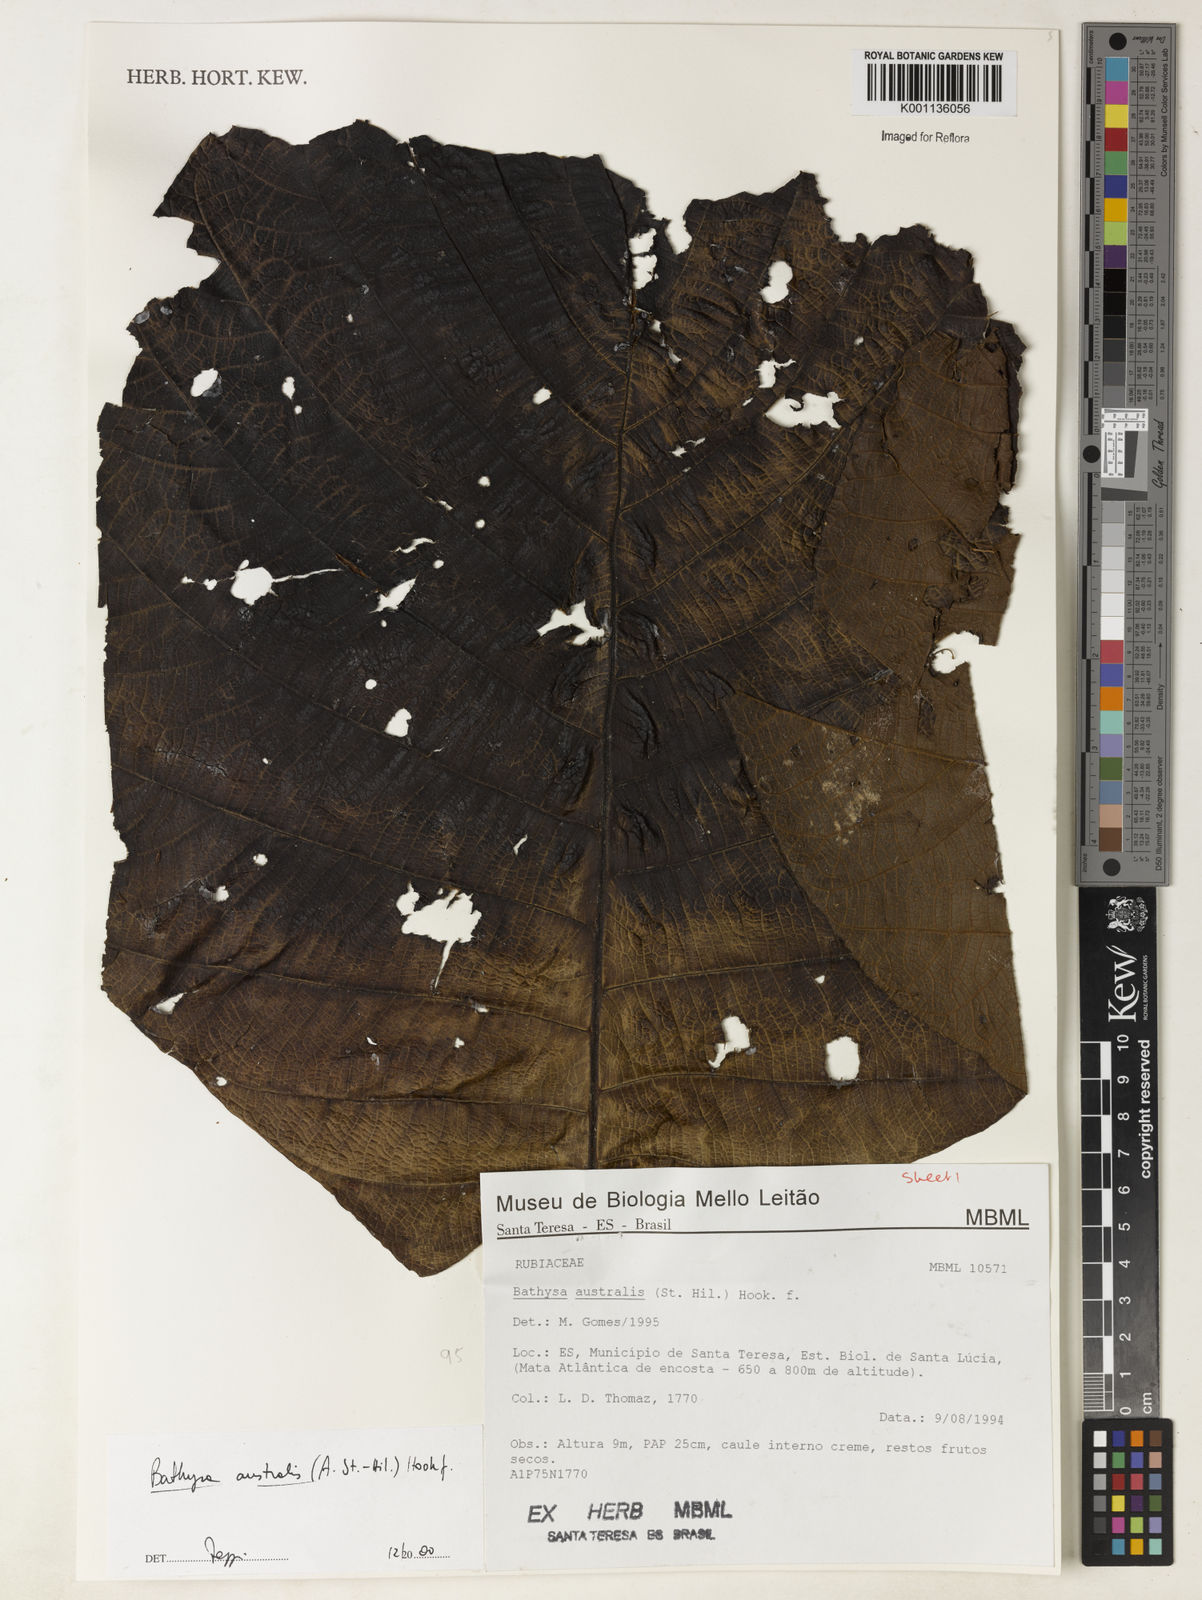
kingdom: Plantae
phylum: Tracheophyta
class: Magnoliopsida
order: Gentianales
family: Rubiaceae
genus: Bathysa
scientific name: Bathysa australis
